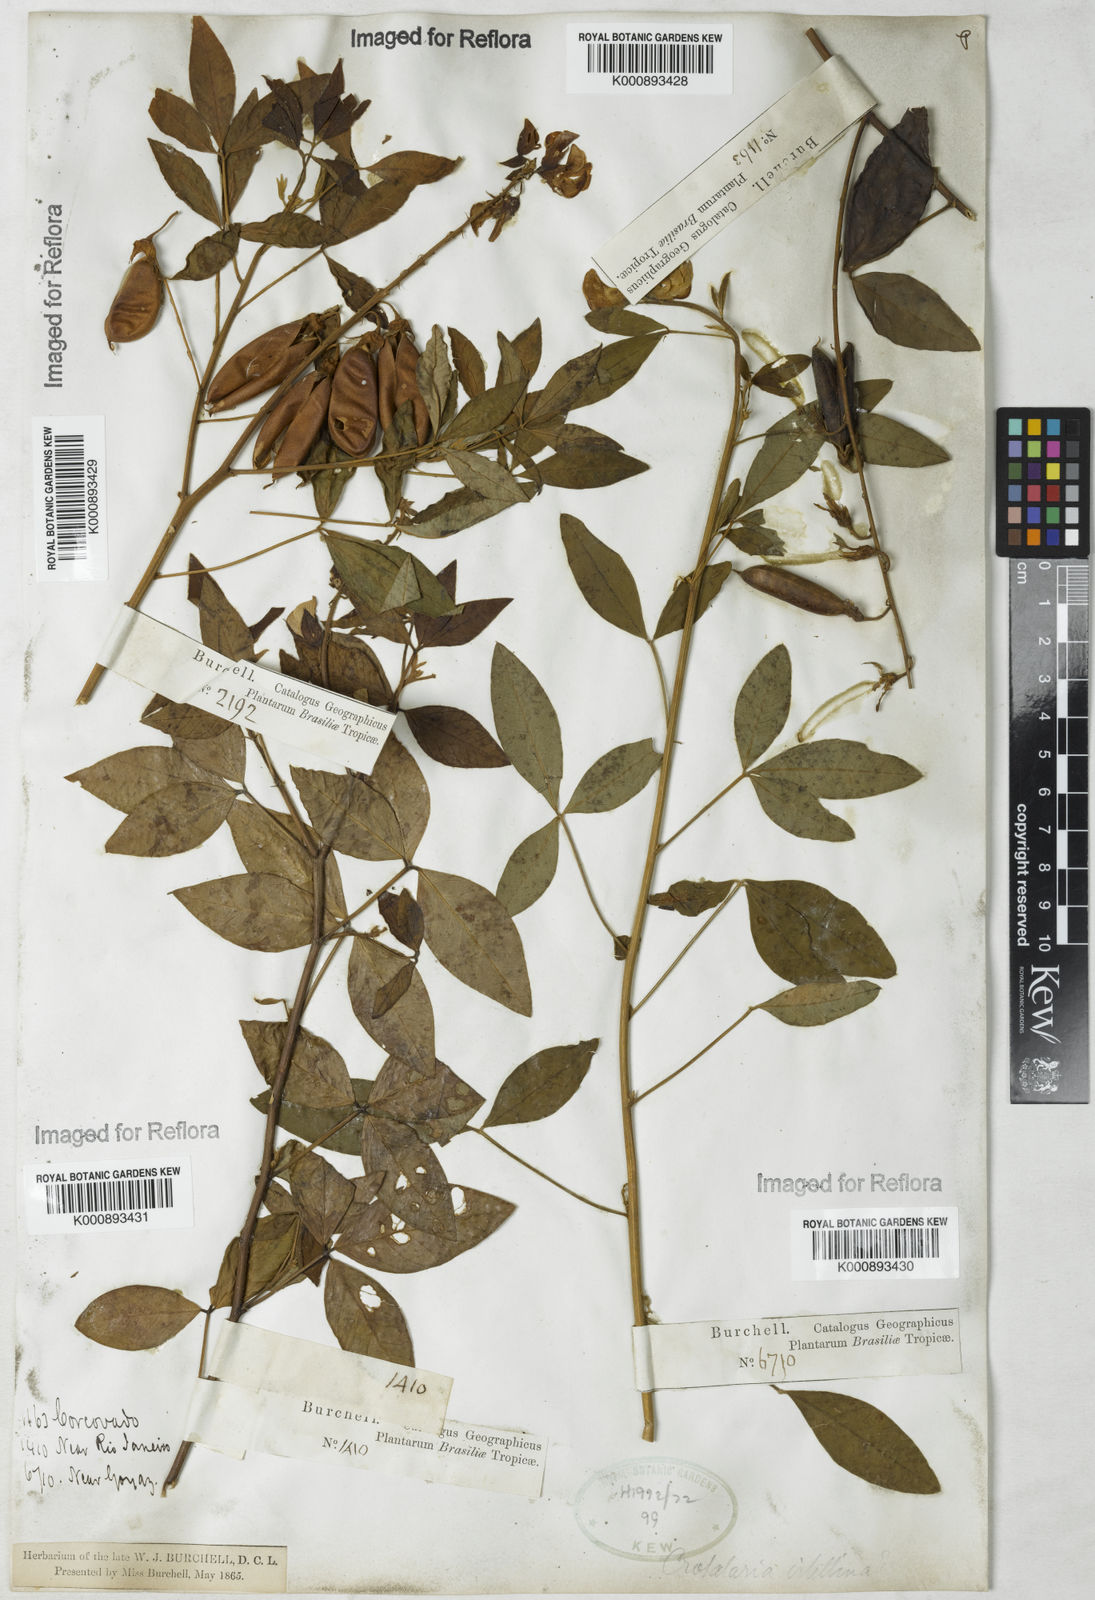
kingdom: Plantae
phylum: Tracheophyta
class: Magnoliopsida
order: Fabales
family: Fabaceae
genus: Crotalaria
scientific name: Crotalaria vitellina
